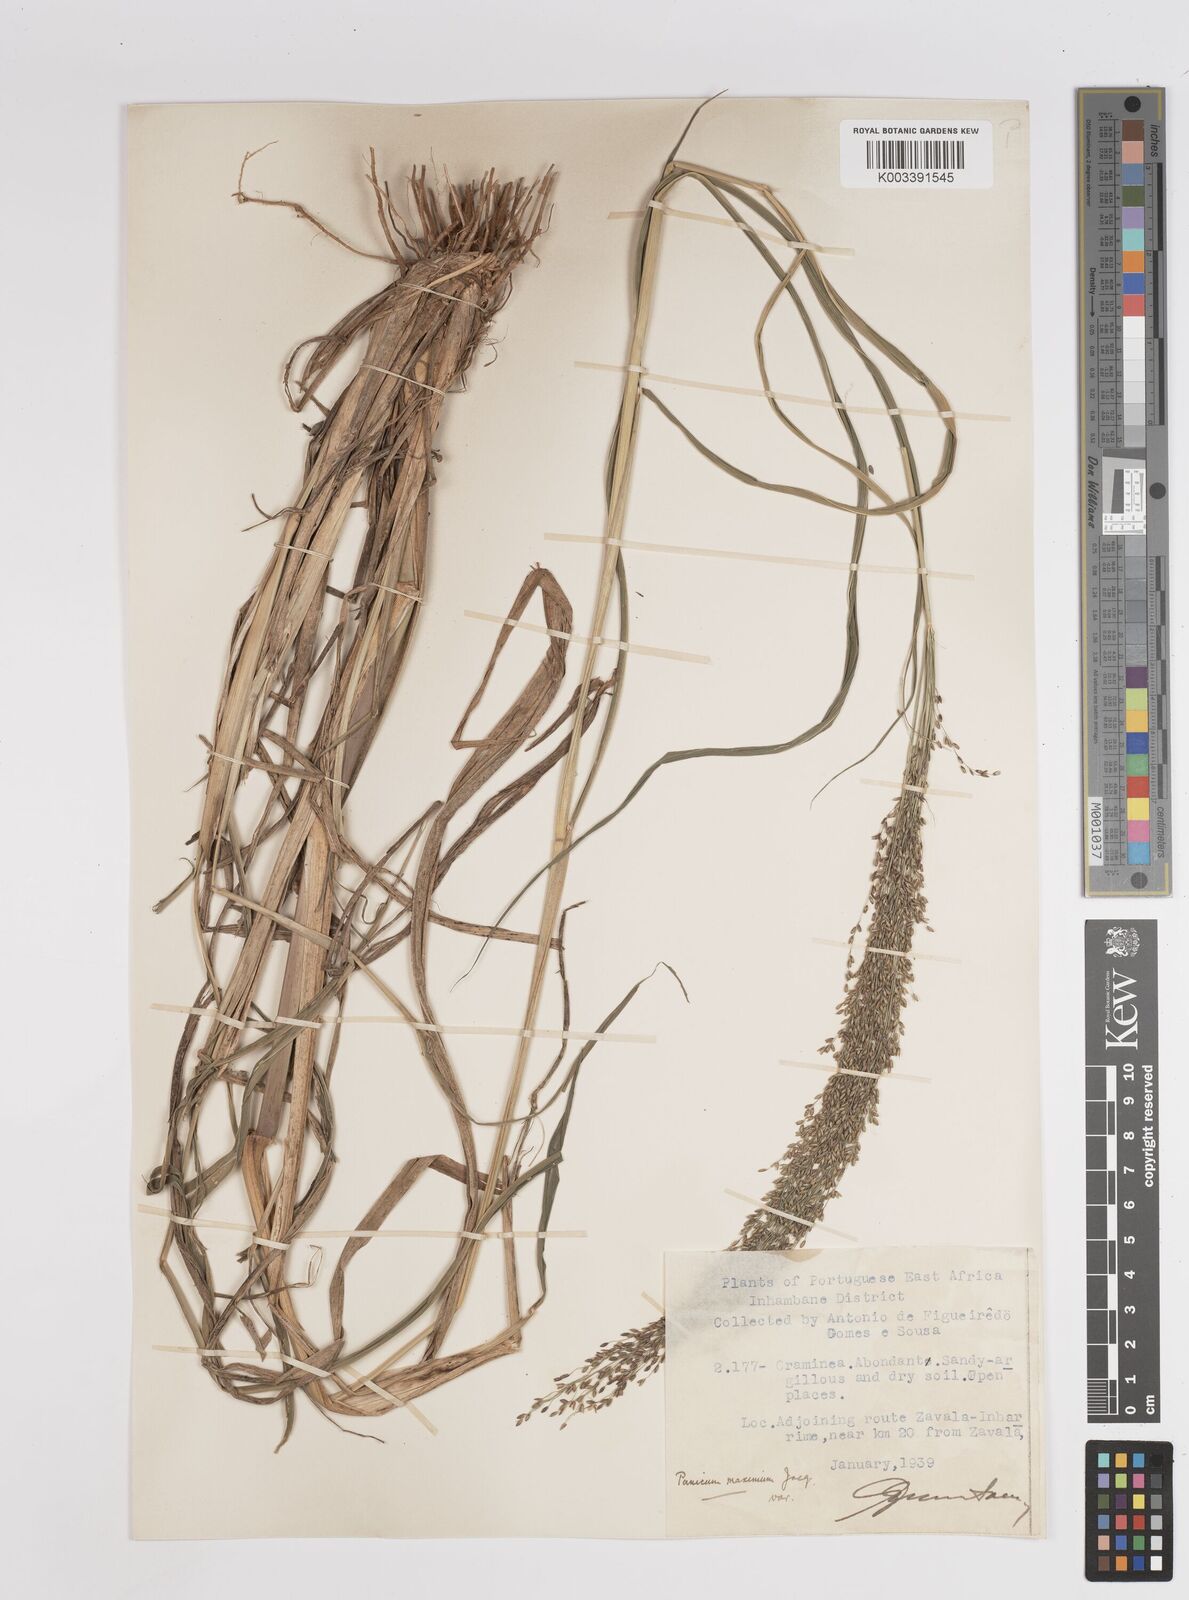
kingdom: Plantae
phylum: Tracheophyta
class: Liliopsida
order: Poales
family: Poaceae
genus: Megathyrsus
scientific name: Megathyrsus maximus
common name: Guineagrass
